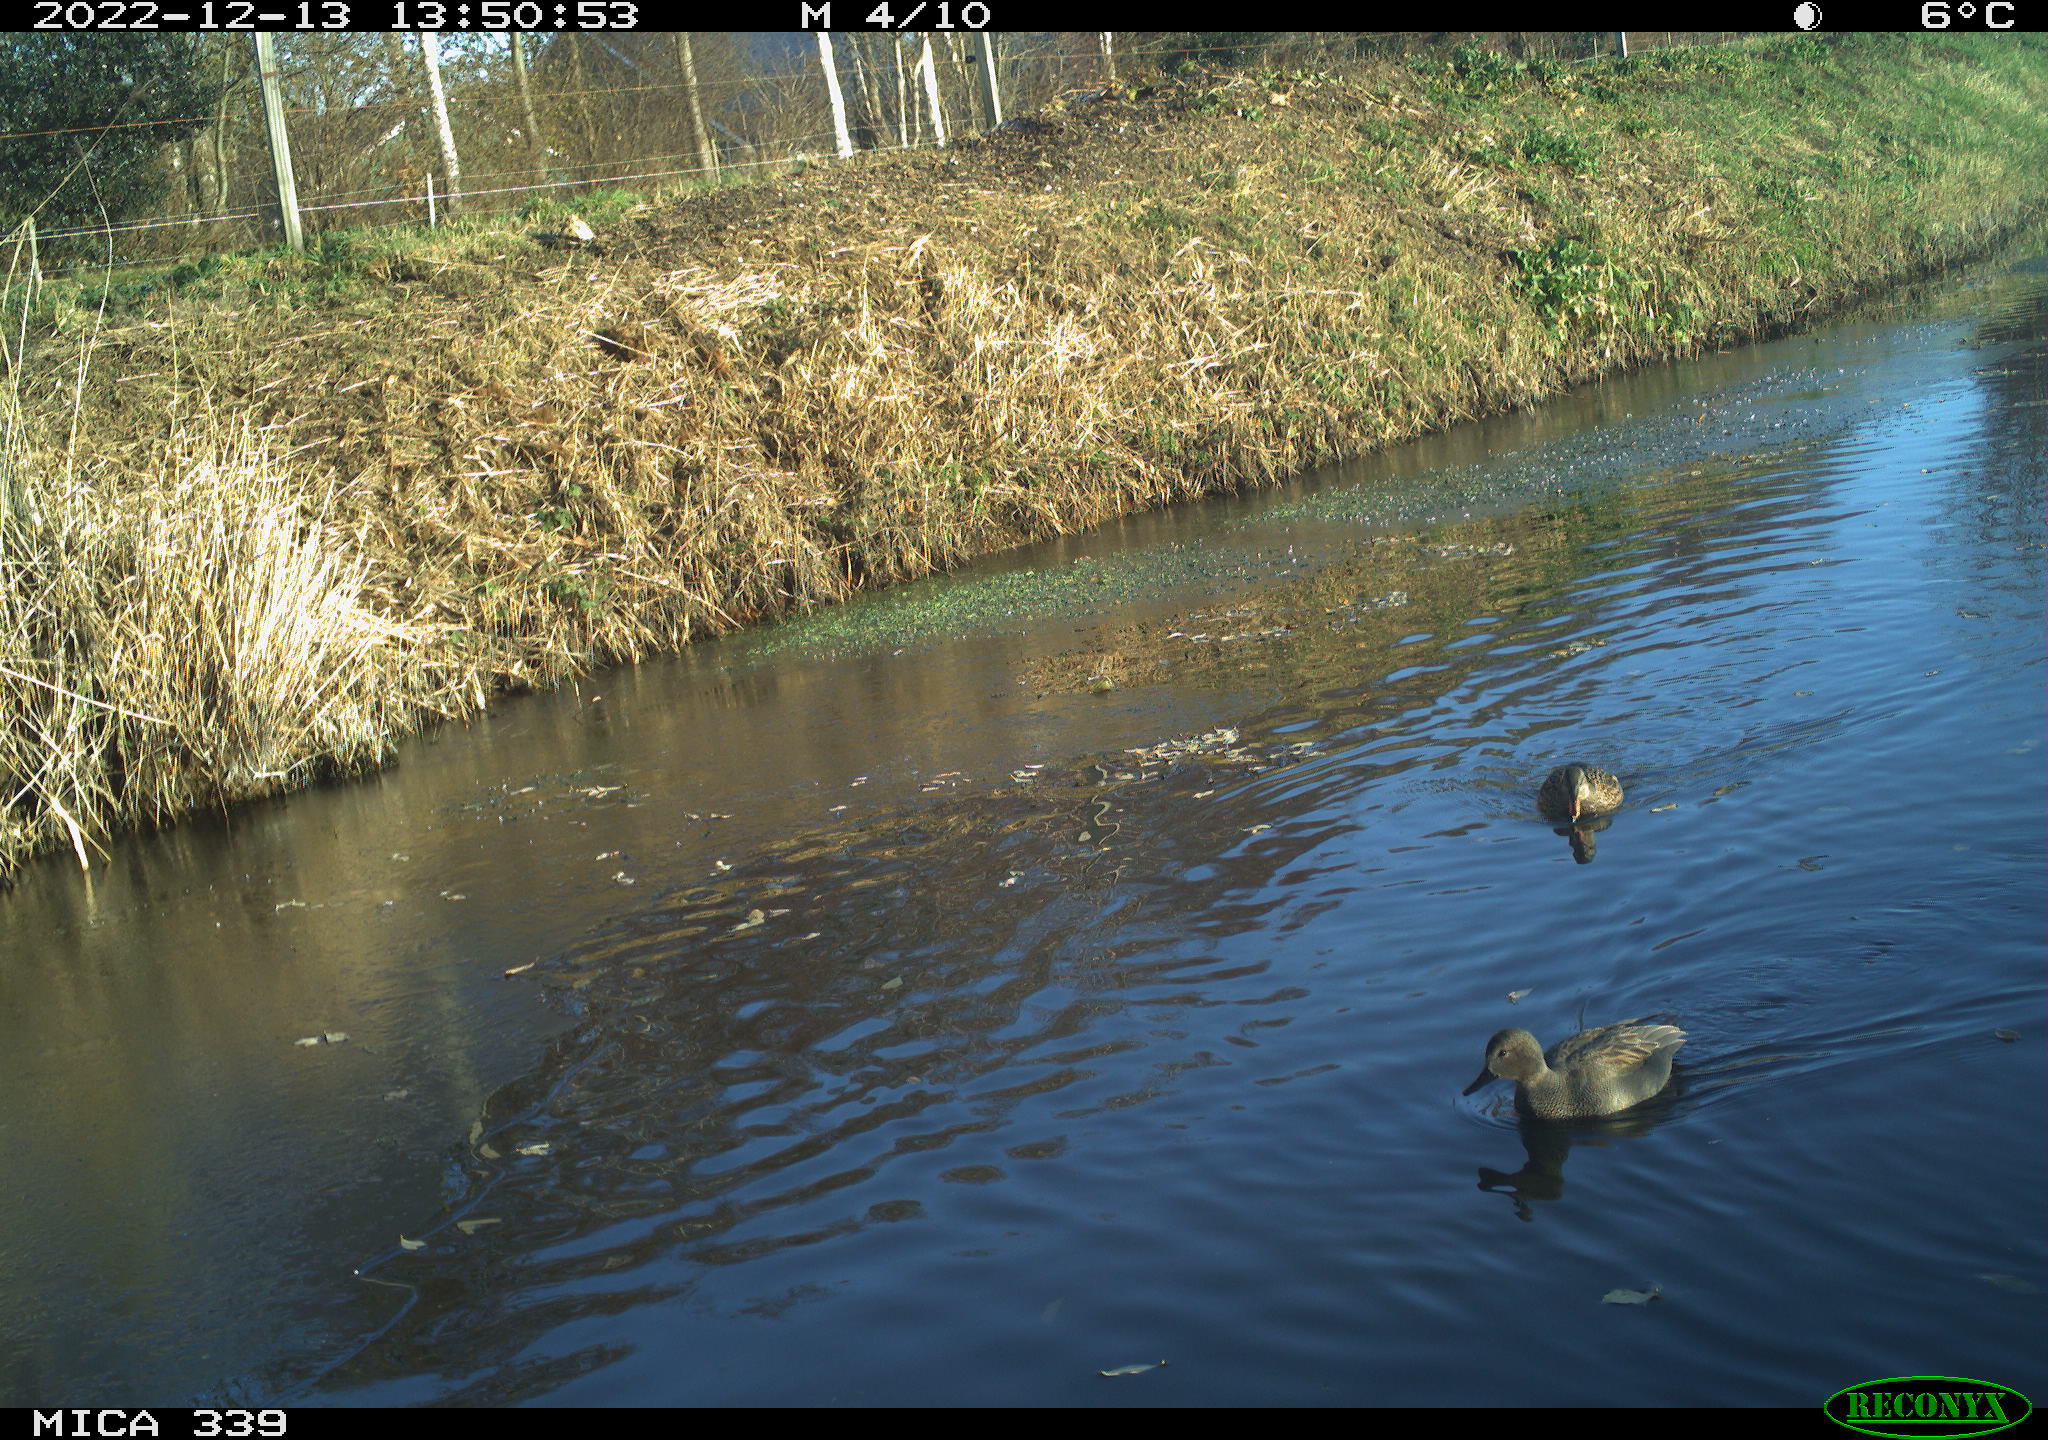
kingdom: Animalia
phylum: Chordata
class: Aves
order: Anseriformes
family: Anatidae
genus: Anas
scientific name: Anas
